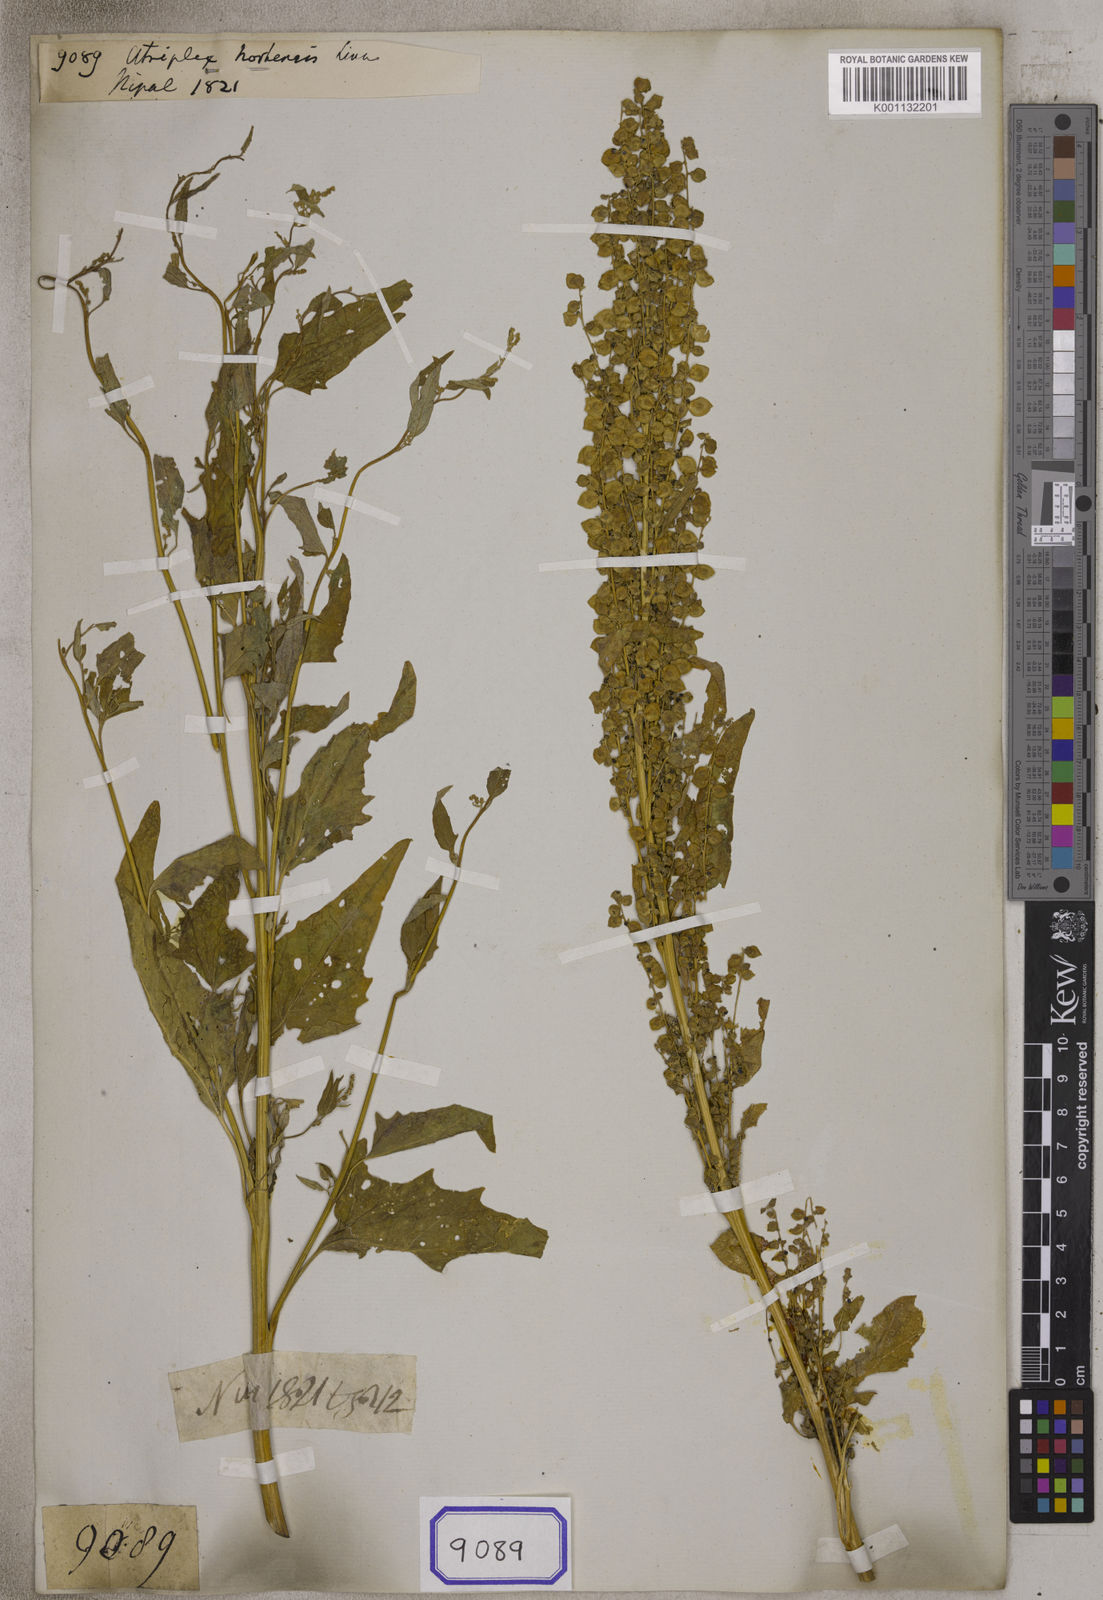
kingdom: Plantae
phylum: Tracheophyta
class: Magnoliopsida
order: Caryophyllales
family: Amaranthaceae
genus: Atriplex
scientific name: Atriplex hortensis
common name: Garden orache
